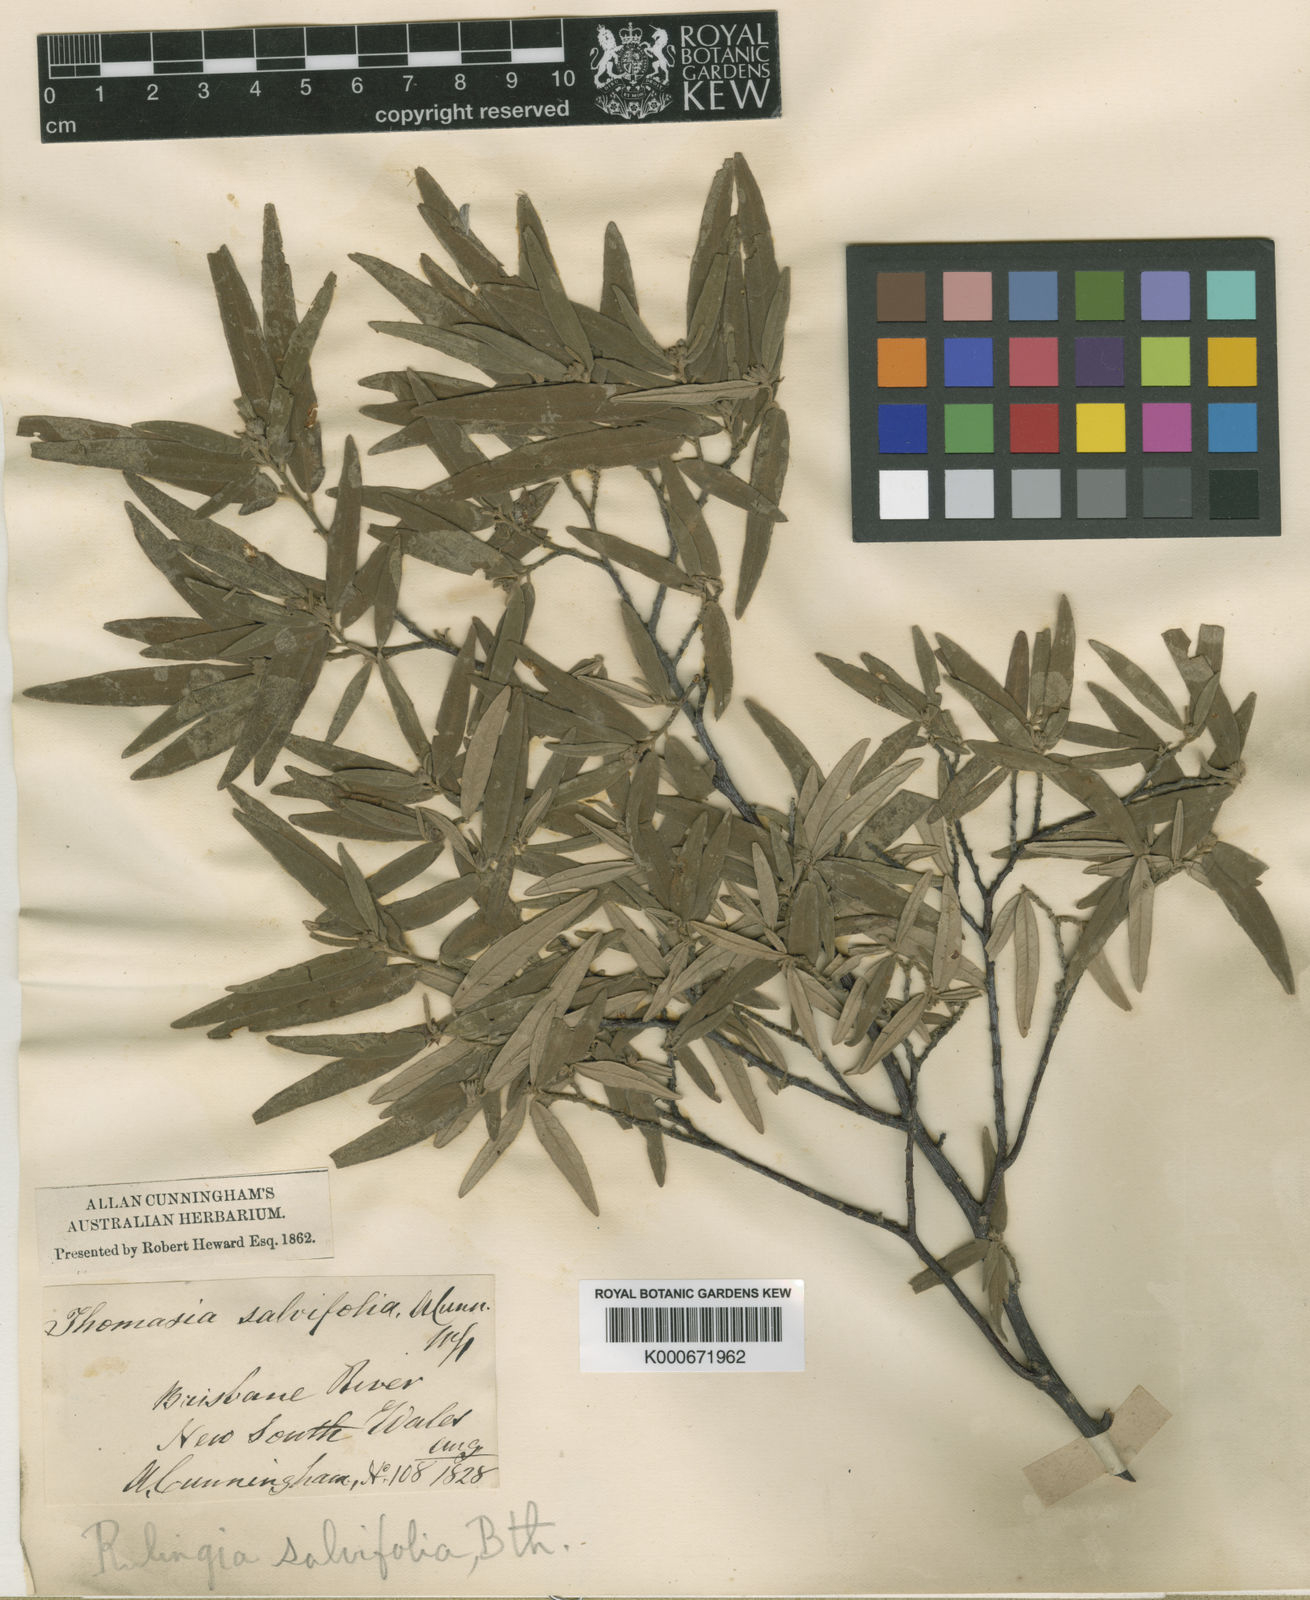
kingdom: Plantae
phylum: Tracheophyta
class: Magnoliopsida
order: Malvales
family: Malvaceae
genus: Commersonia
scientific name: Commersonia salviifolia
